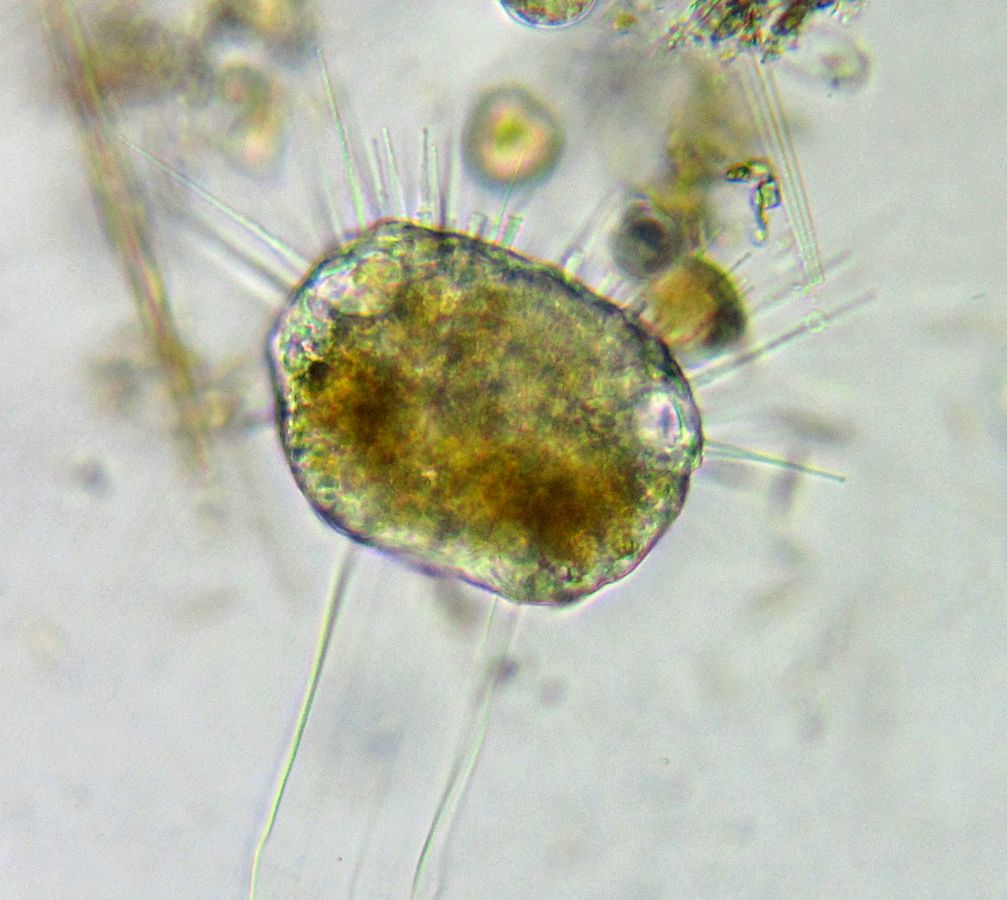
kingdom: Chromista
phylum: Ciliophora
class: Phyllopharyngea
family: Ephelotidae
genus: Ephelota
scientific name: Ephelota truncata
